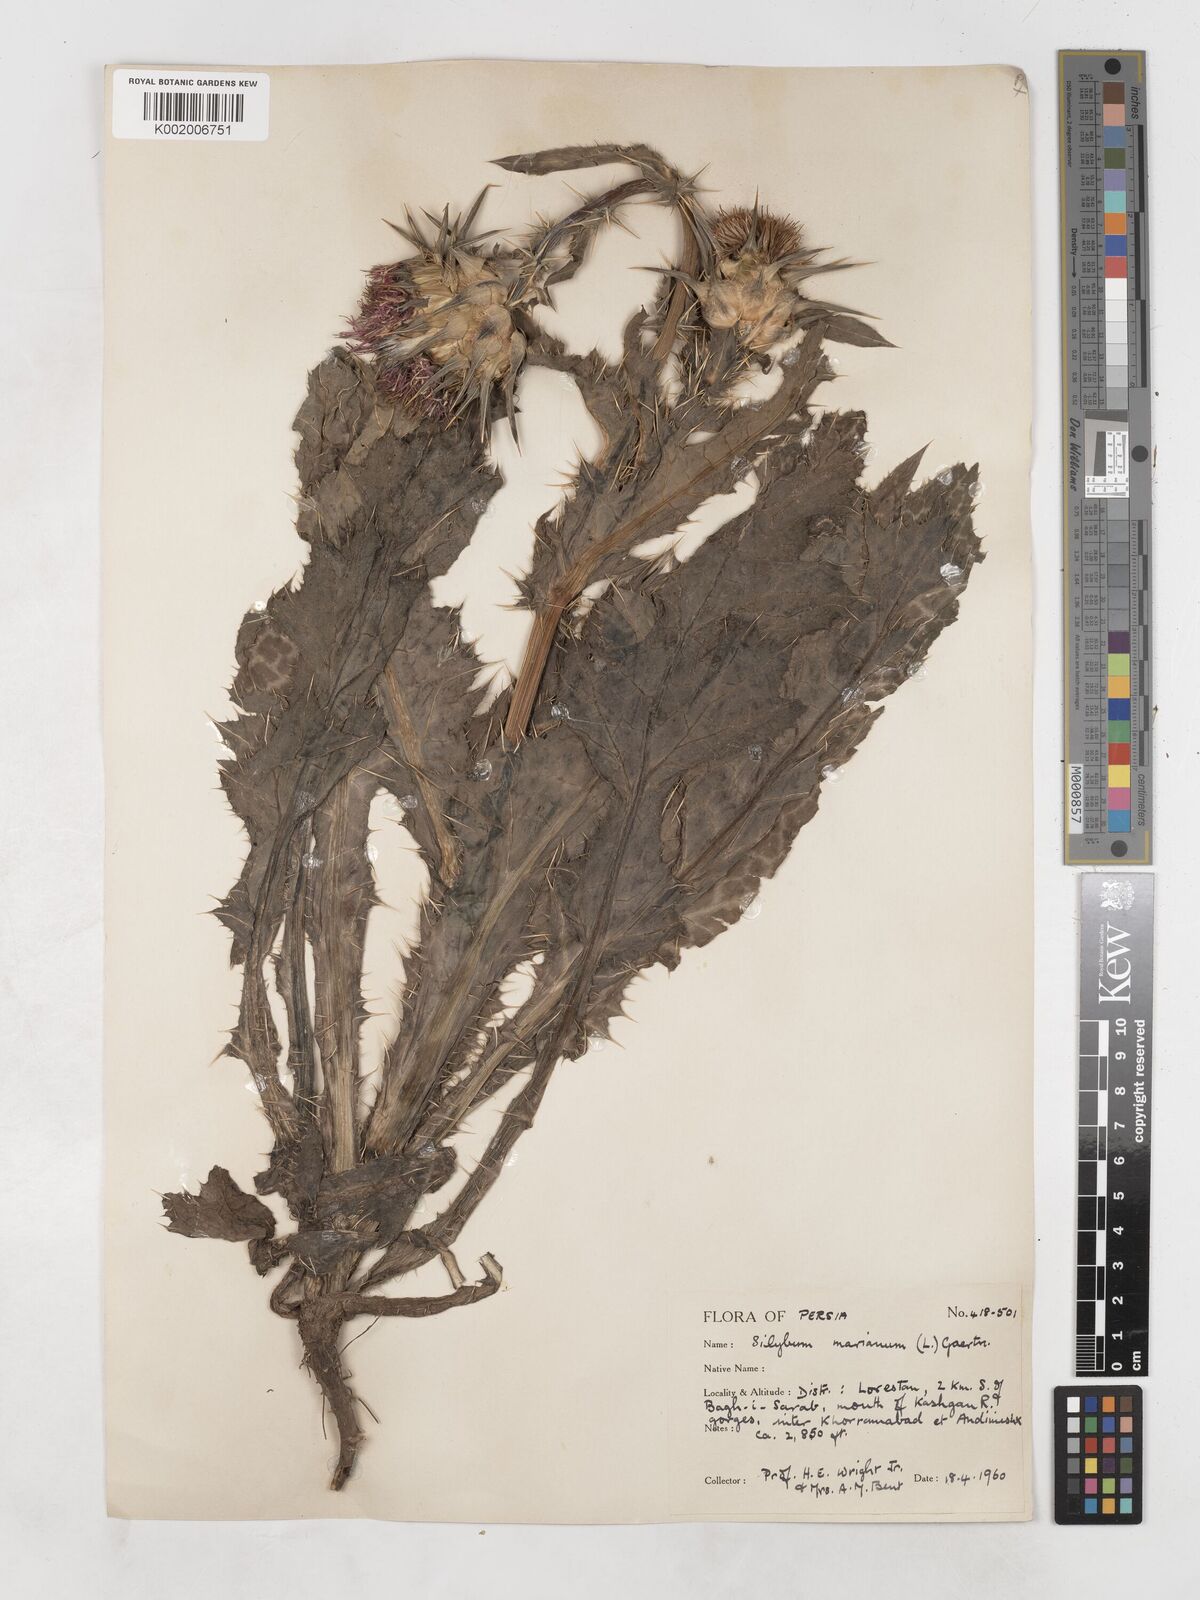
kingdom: Plantae
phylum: Tracheophyta
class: Magnoliopsida
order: Asterales
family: Asteraceae
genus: Silybum
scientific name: Silybum marianum
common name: Milk thistle
